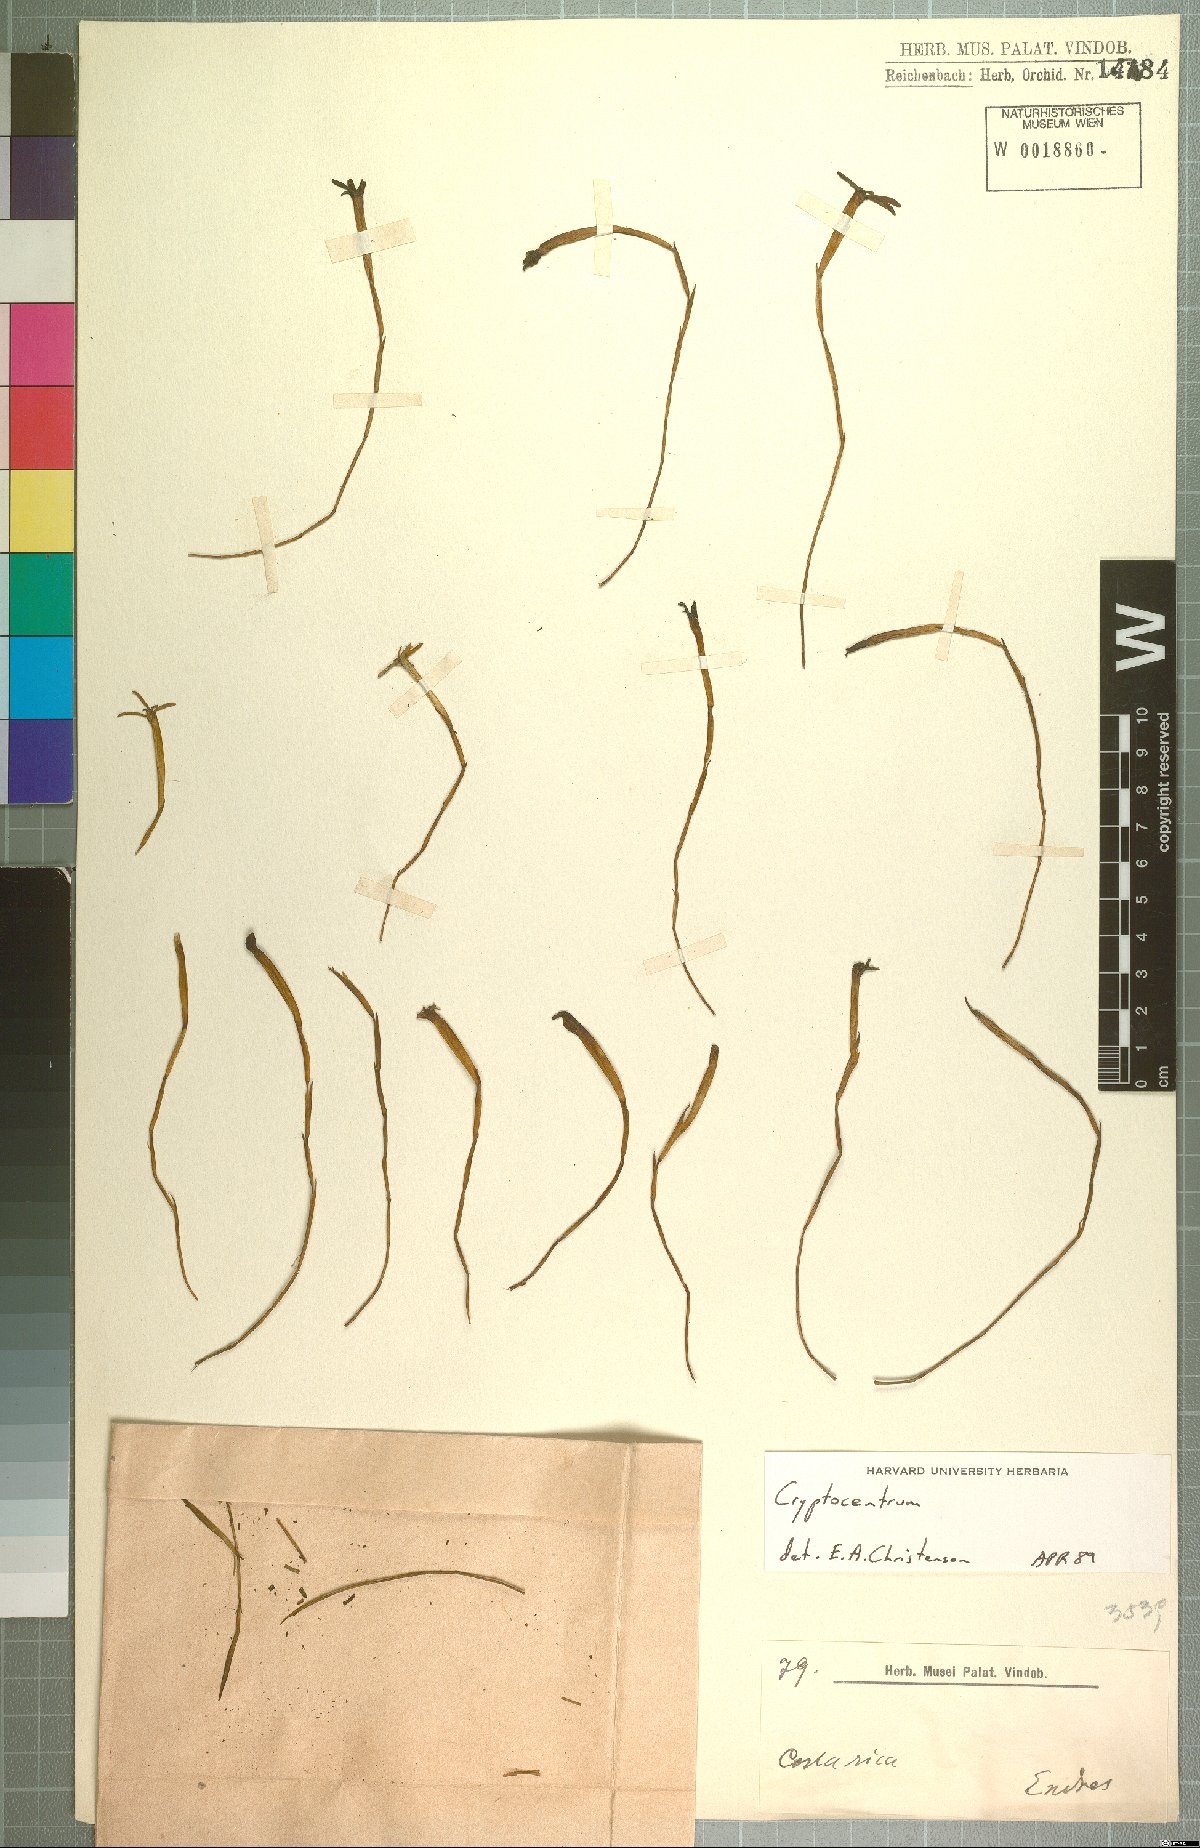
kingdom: Plantae
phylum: Tracheophyta
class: Liliopsida
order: Asparagales
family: Orchidaceae
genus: Maxillaria
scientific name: Maxillaria jacquelineana
